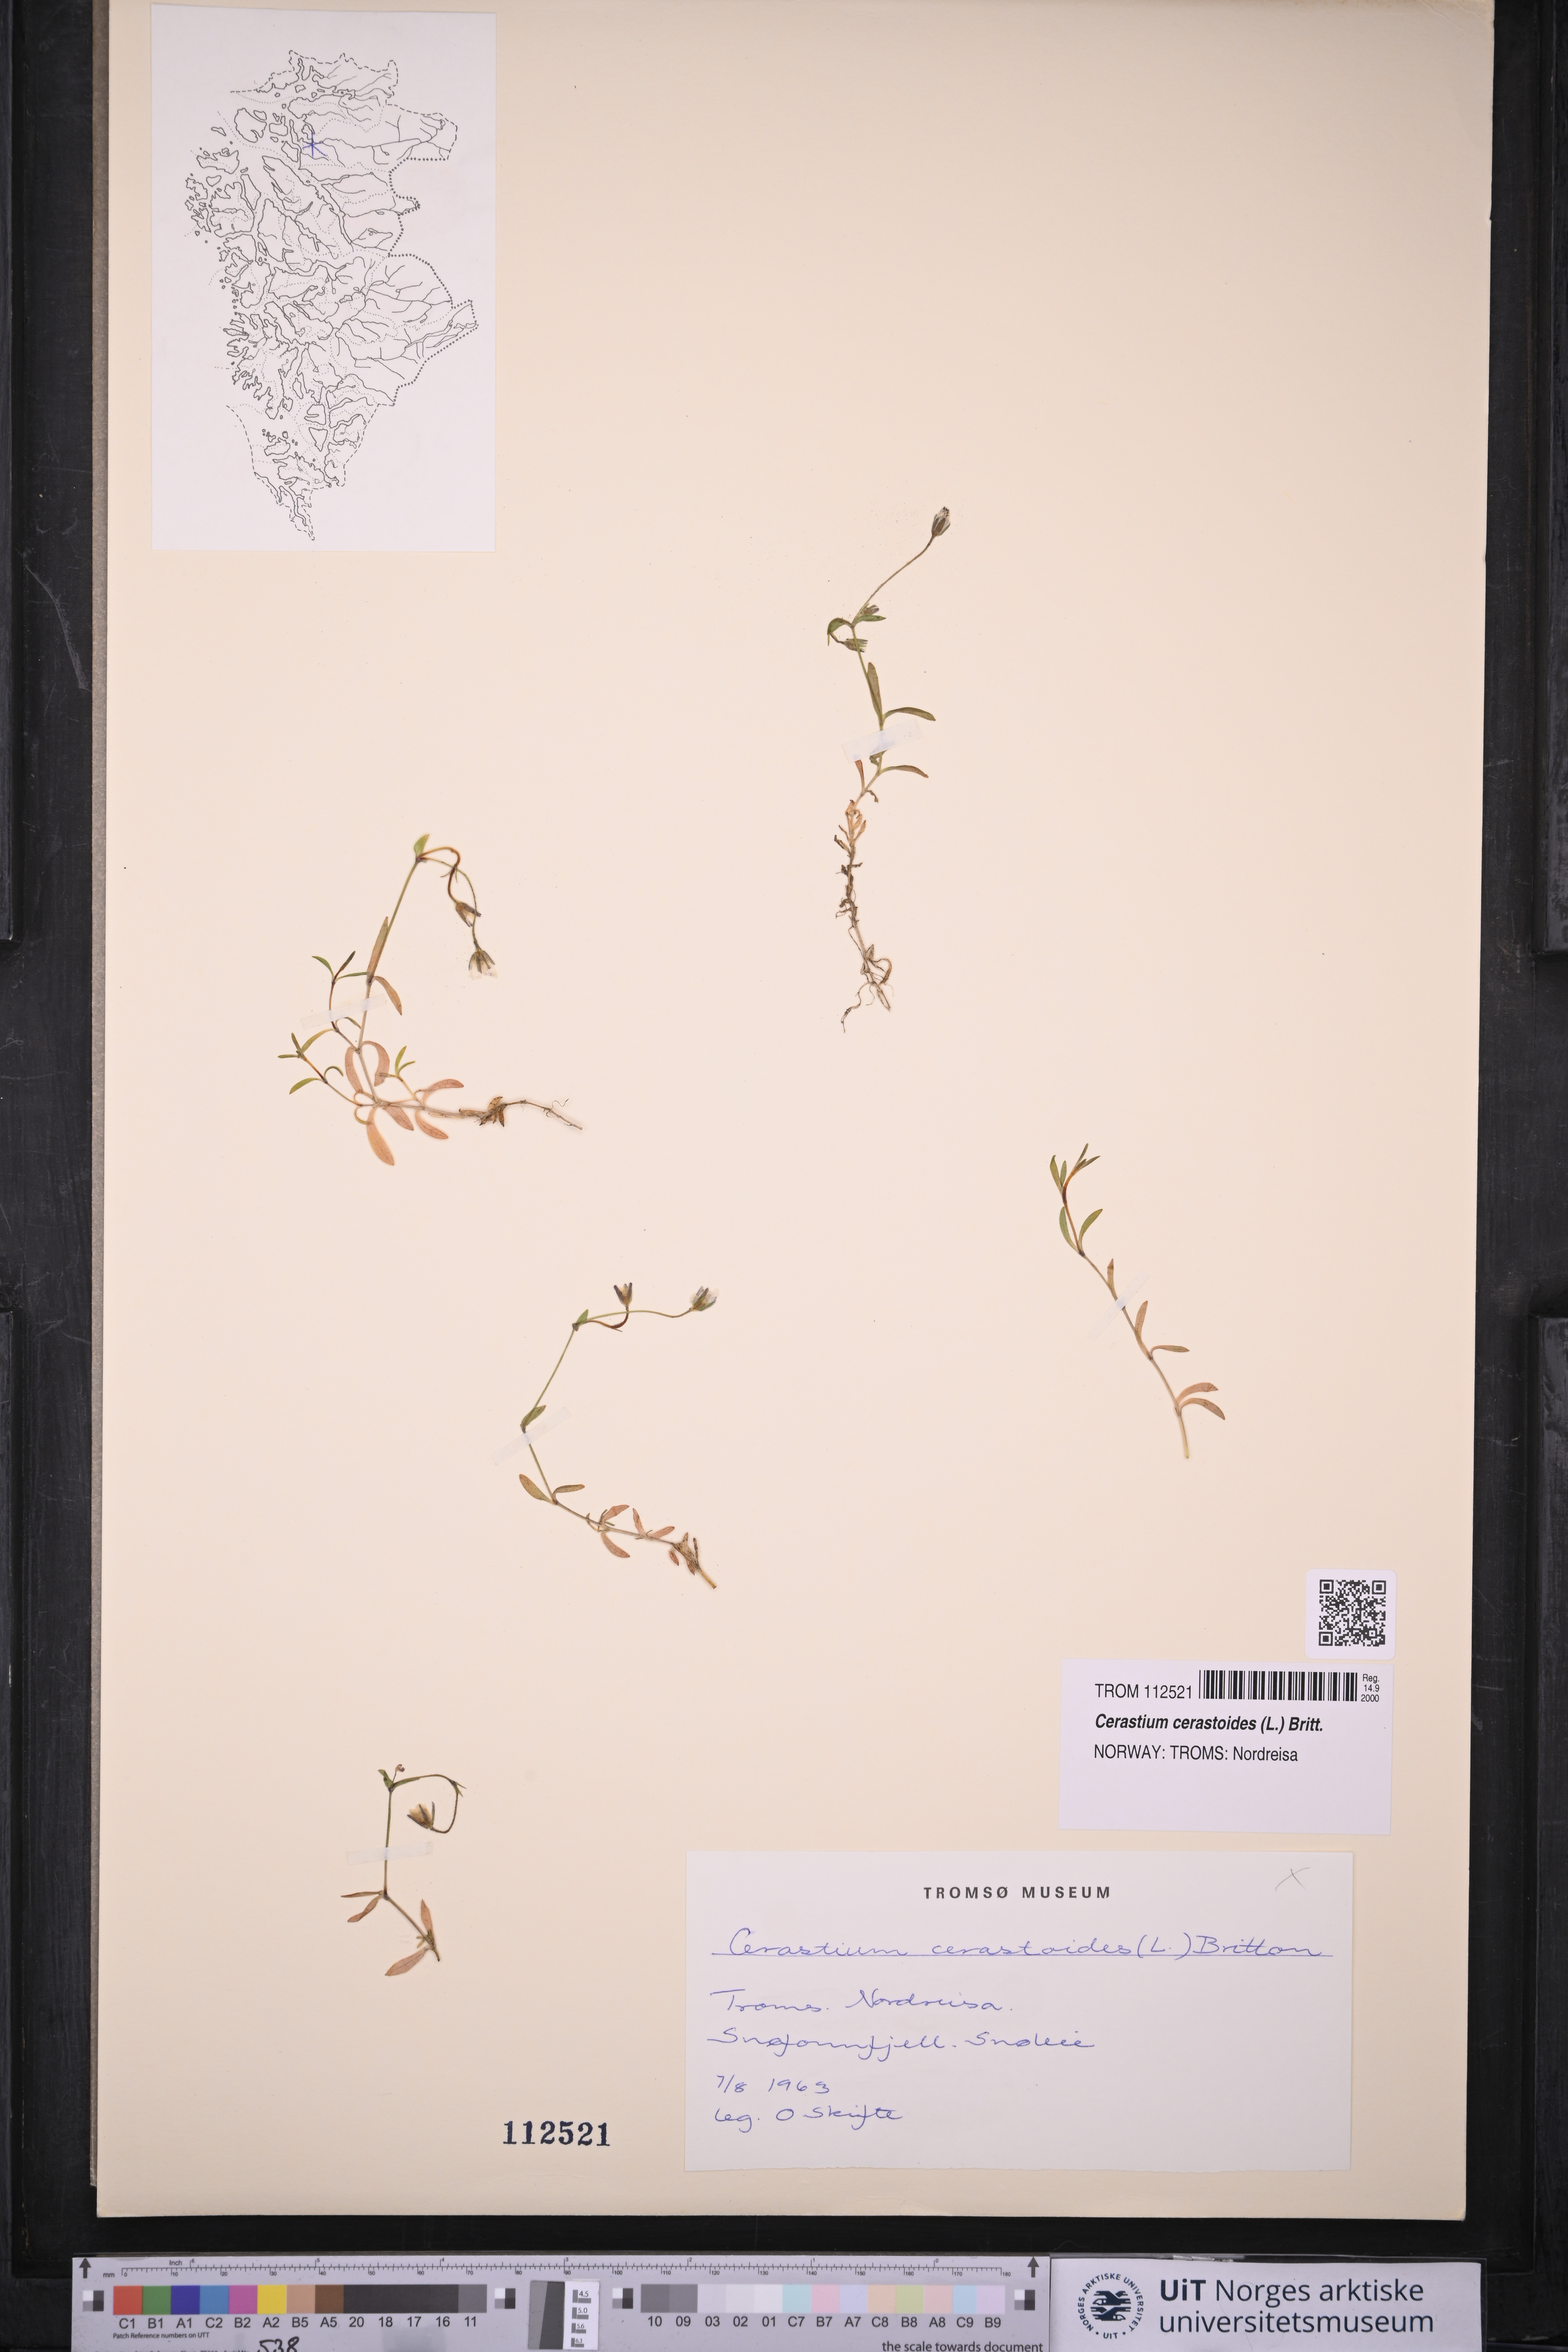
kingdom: Plantae
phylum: Tracheophyta
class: Magnoliopsida
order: Caryophyllales
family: Caryophyllaceae
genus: Dichodon
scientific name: Dichodon cerastoides
